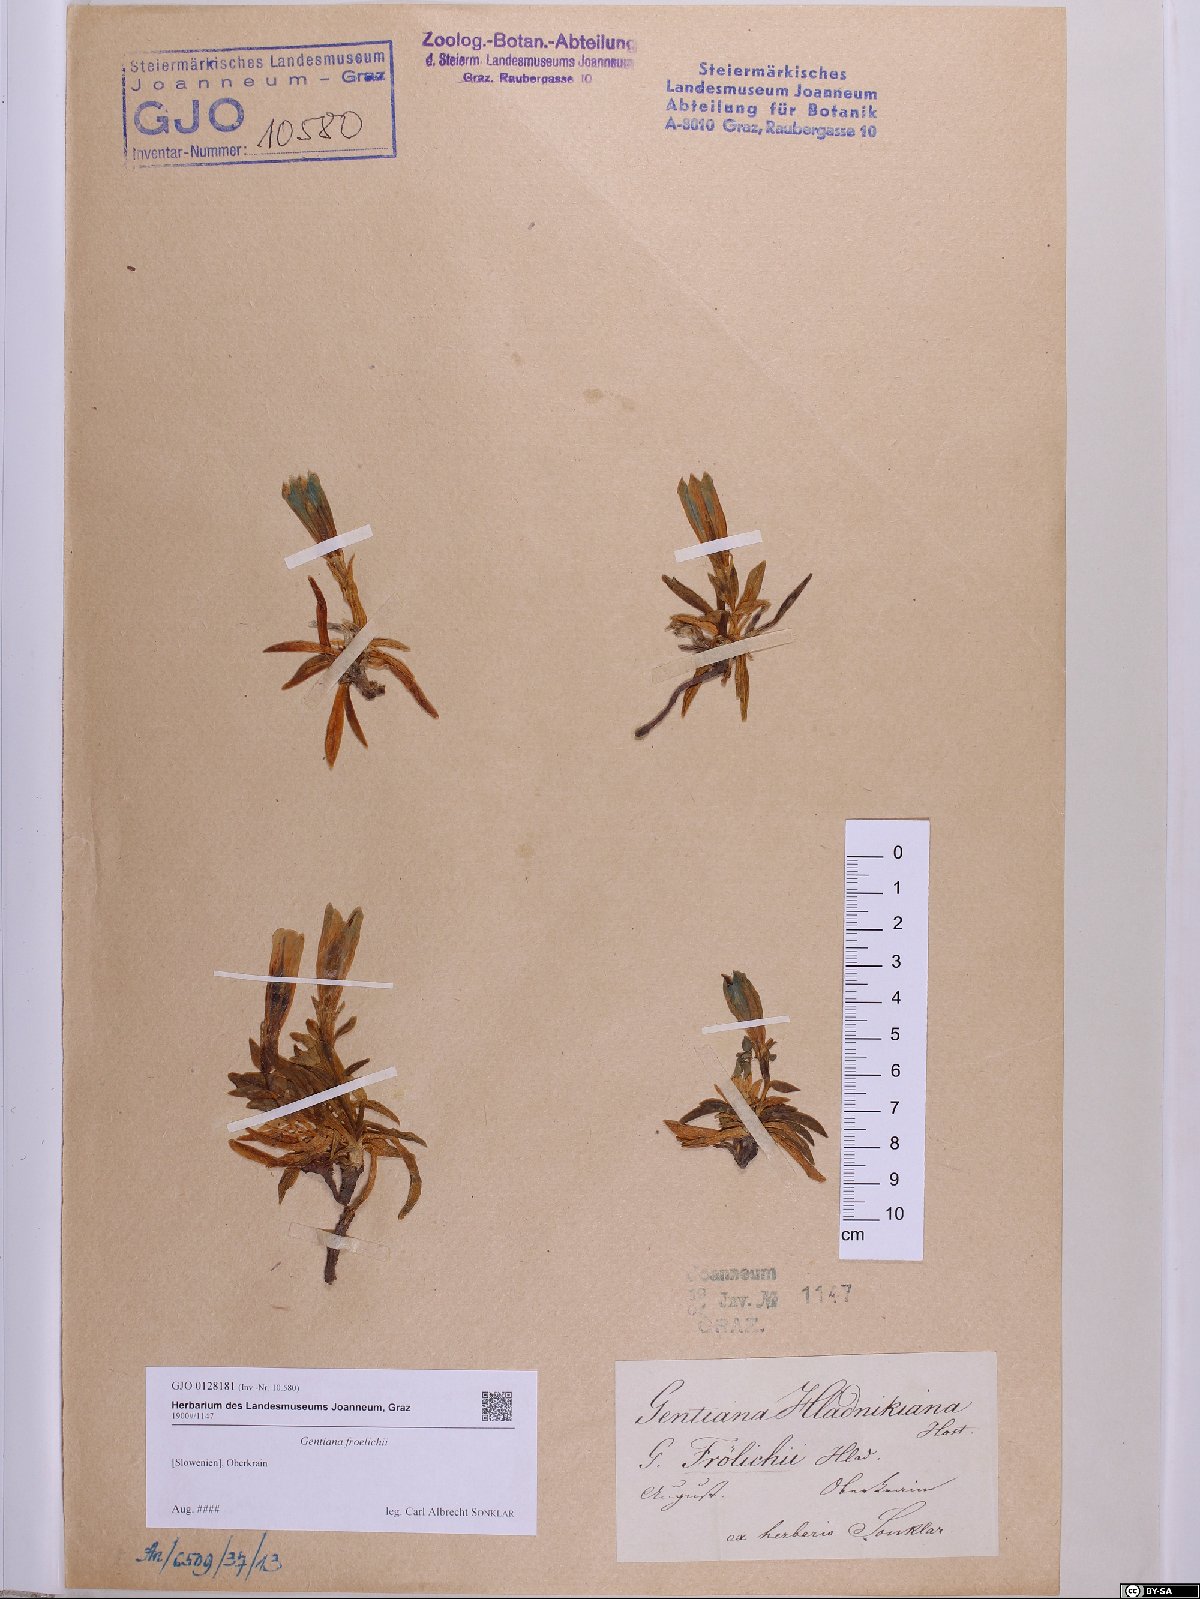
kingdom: Plantae
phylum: Tracheophyta
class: Magnoliopsida
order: Gentianales
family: Gentianaceae
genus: Gentiana
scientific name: Gentiana froelichii
